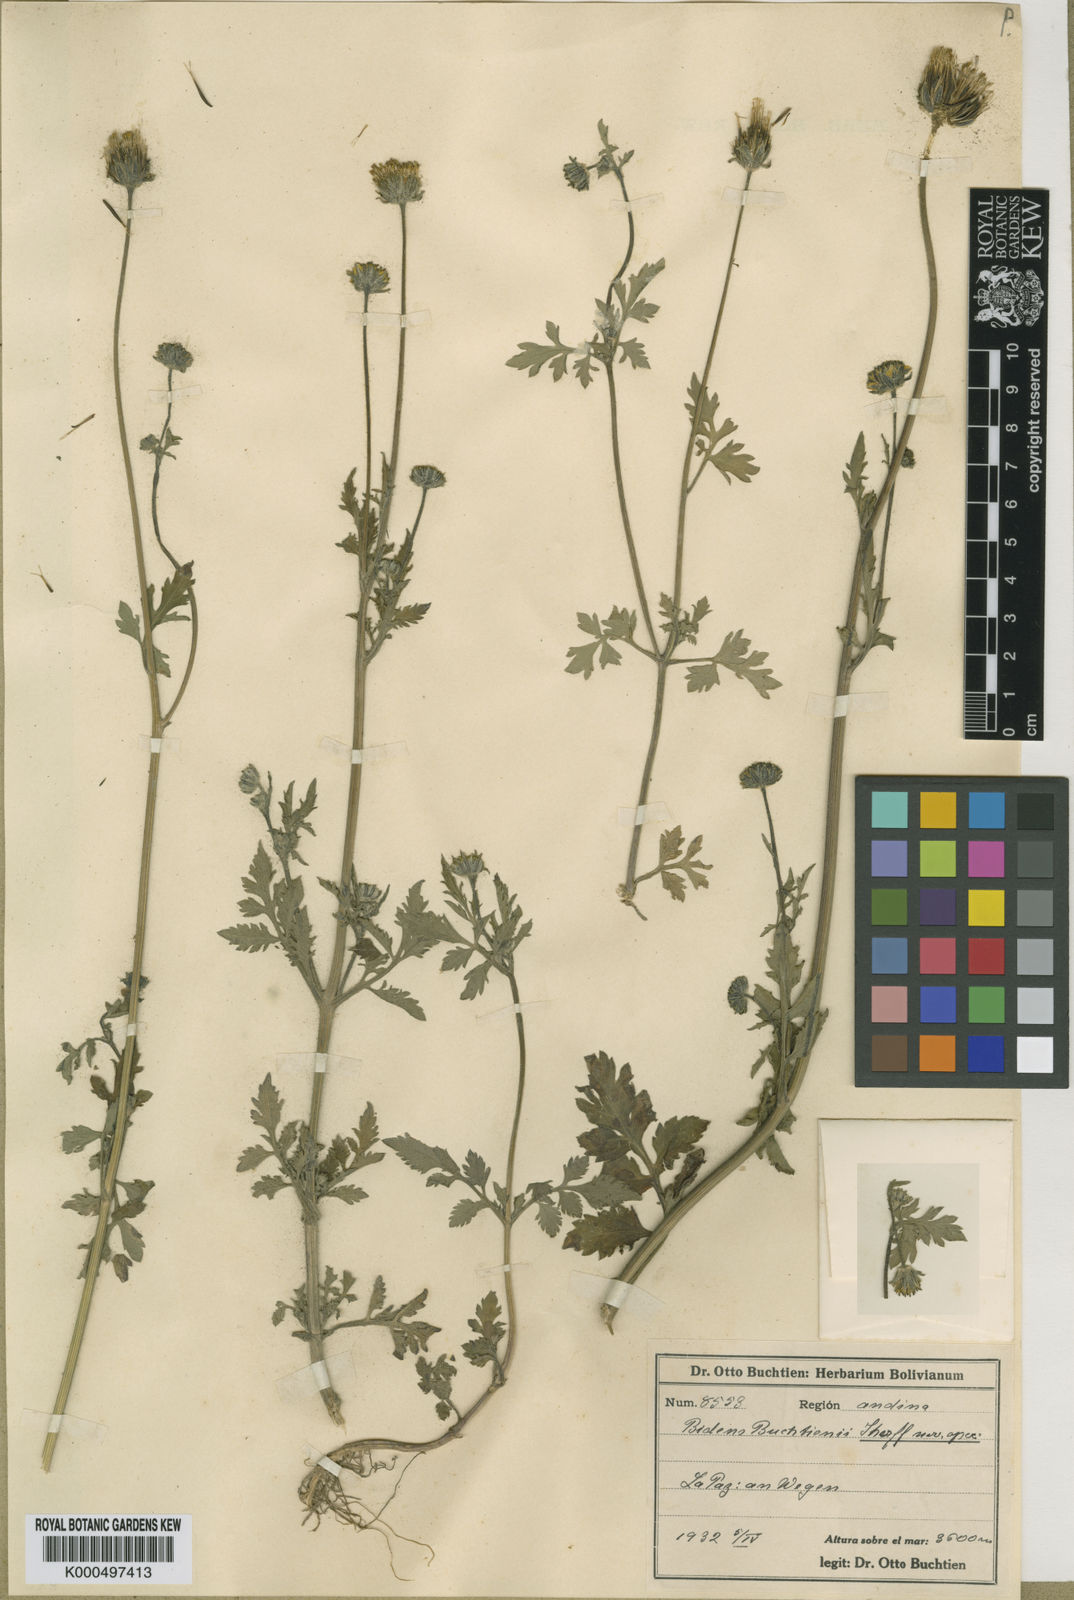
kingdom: Plantae
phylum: Tracheophyta
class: Magnoliopsida
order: Asterales
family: Asteraceae
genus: Bidens
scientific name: Bidens andicola
